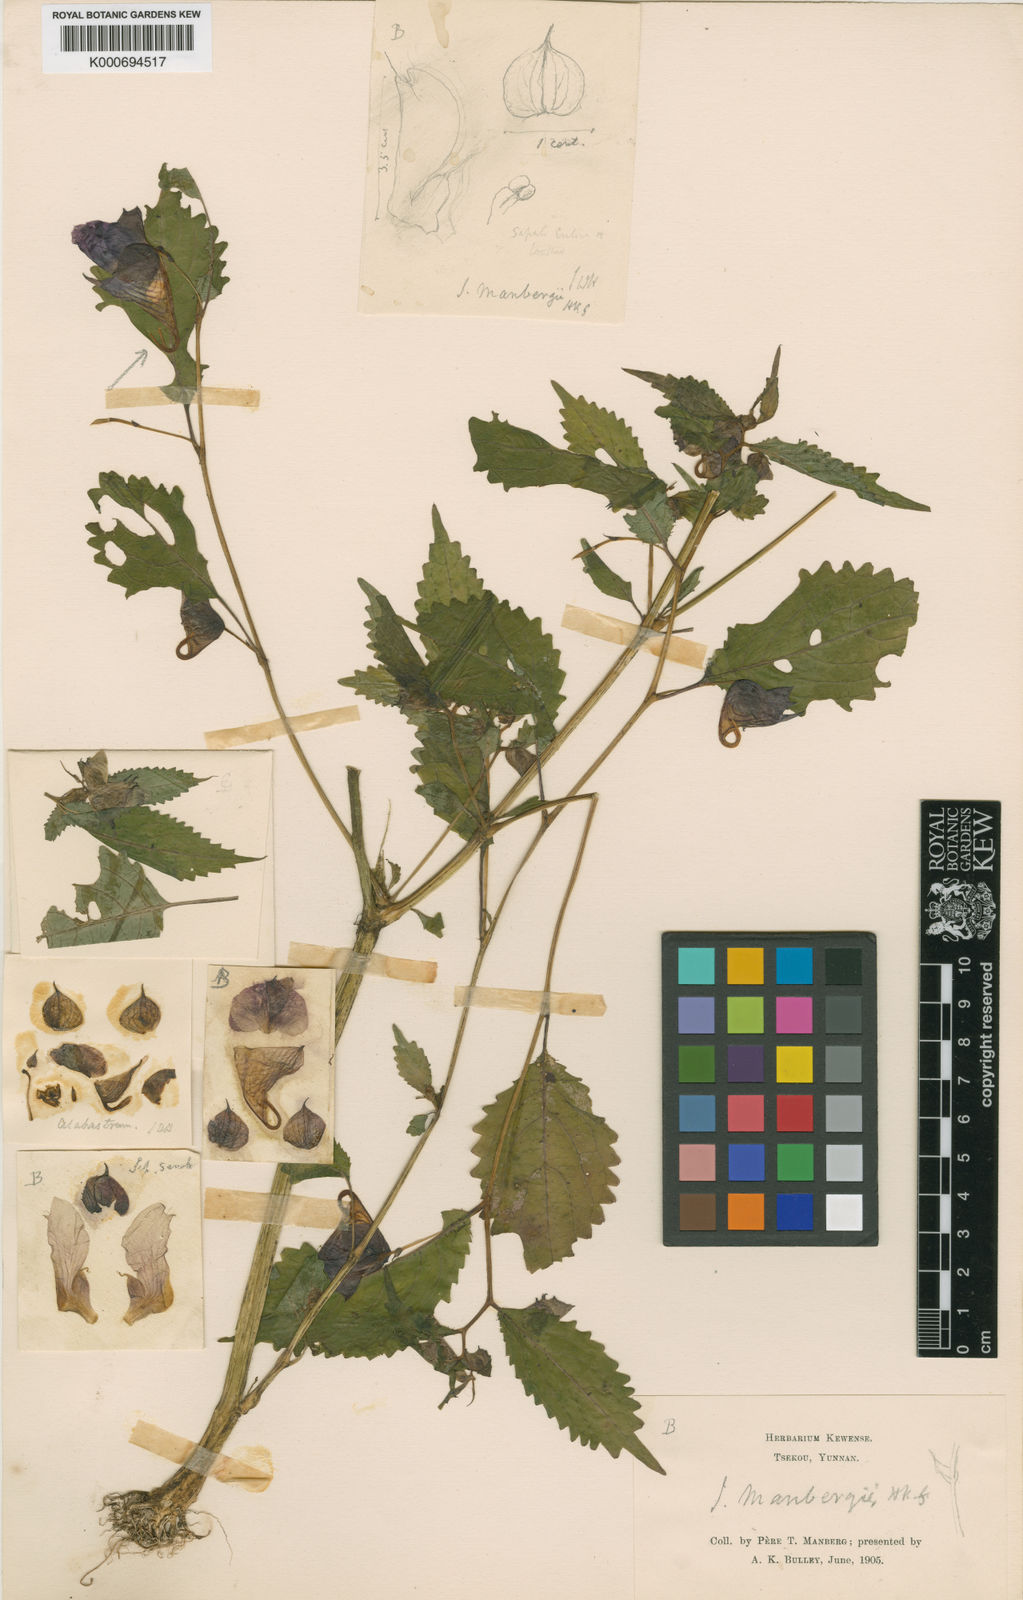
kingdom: Plantae
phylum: Tracheophyta
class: Magnoliopsida
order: Ericales
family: Balsaminaceae
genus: Impatiens
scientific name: Impatiens
